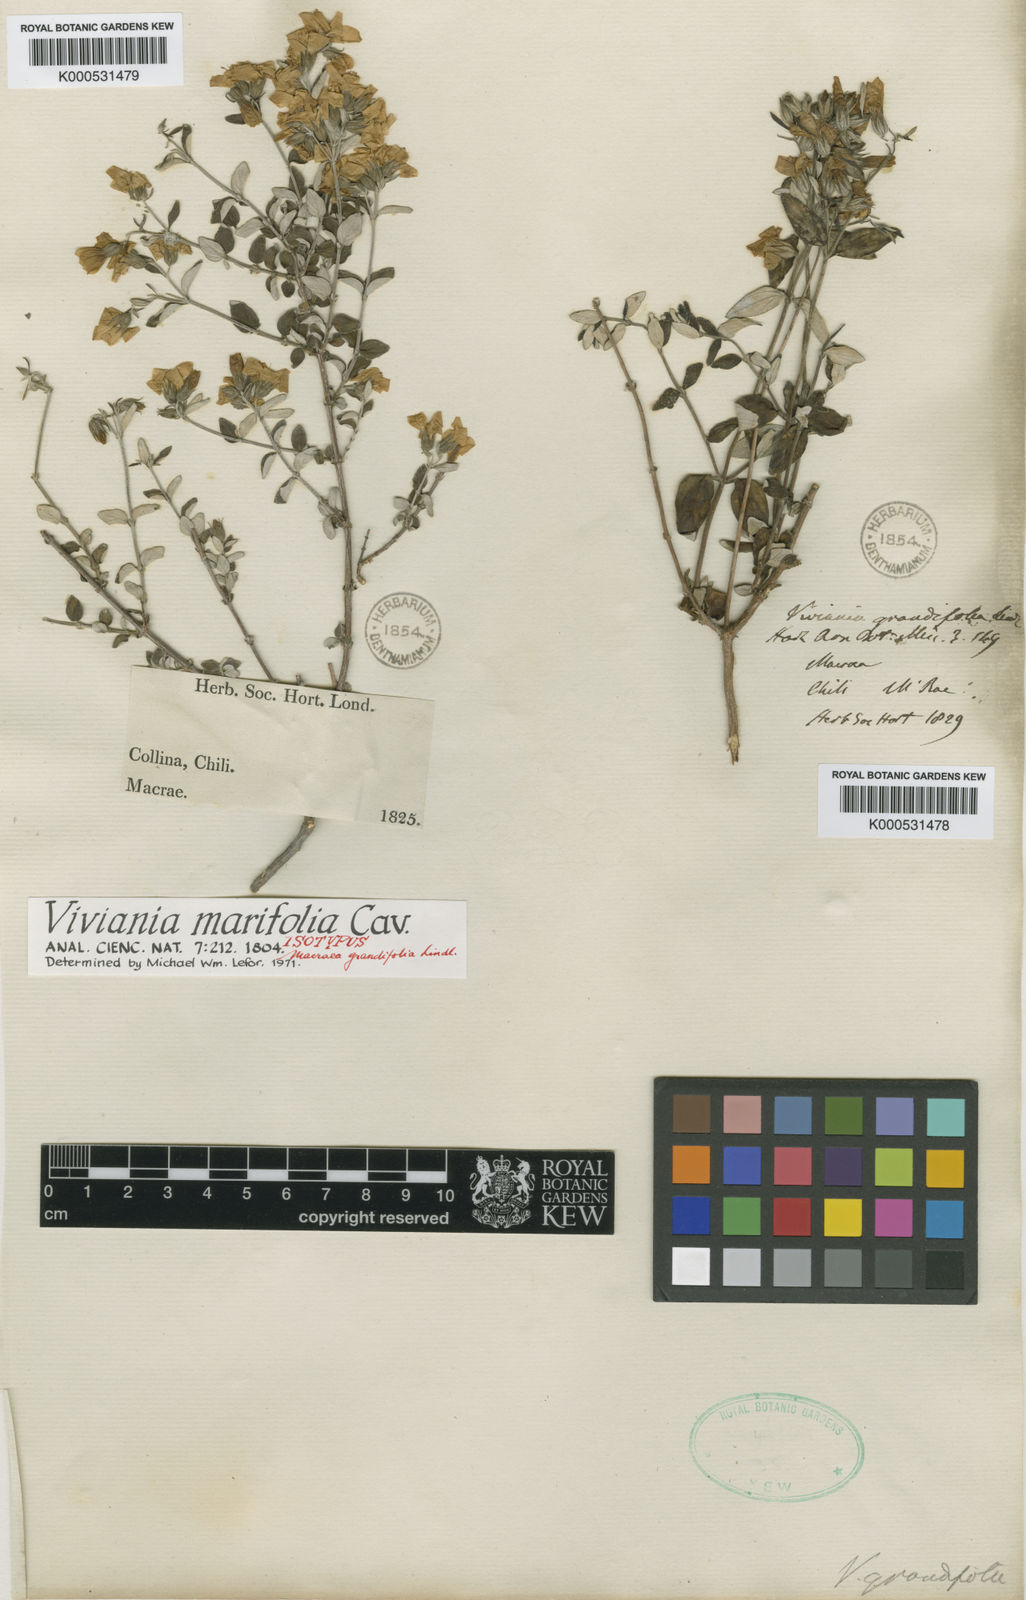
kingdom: Plantae
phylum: Tracheophyta
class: Magnoliopsida
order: Geraniales
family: Vivianiaceae
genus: Viviania
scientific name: Viviania marifolia
